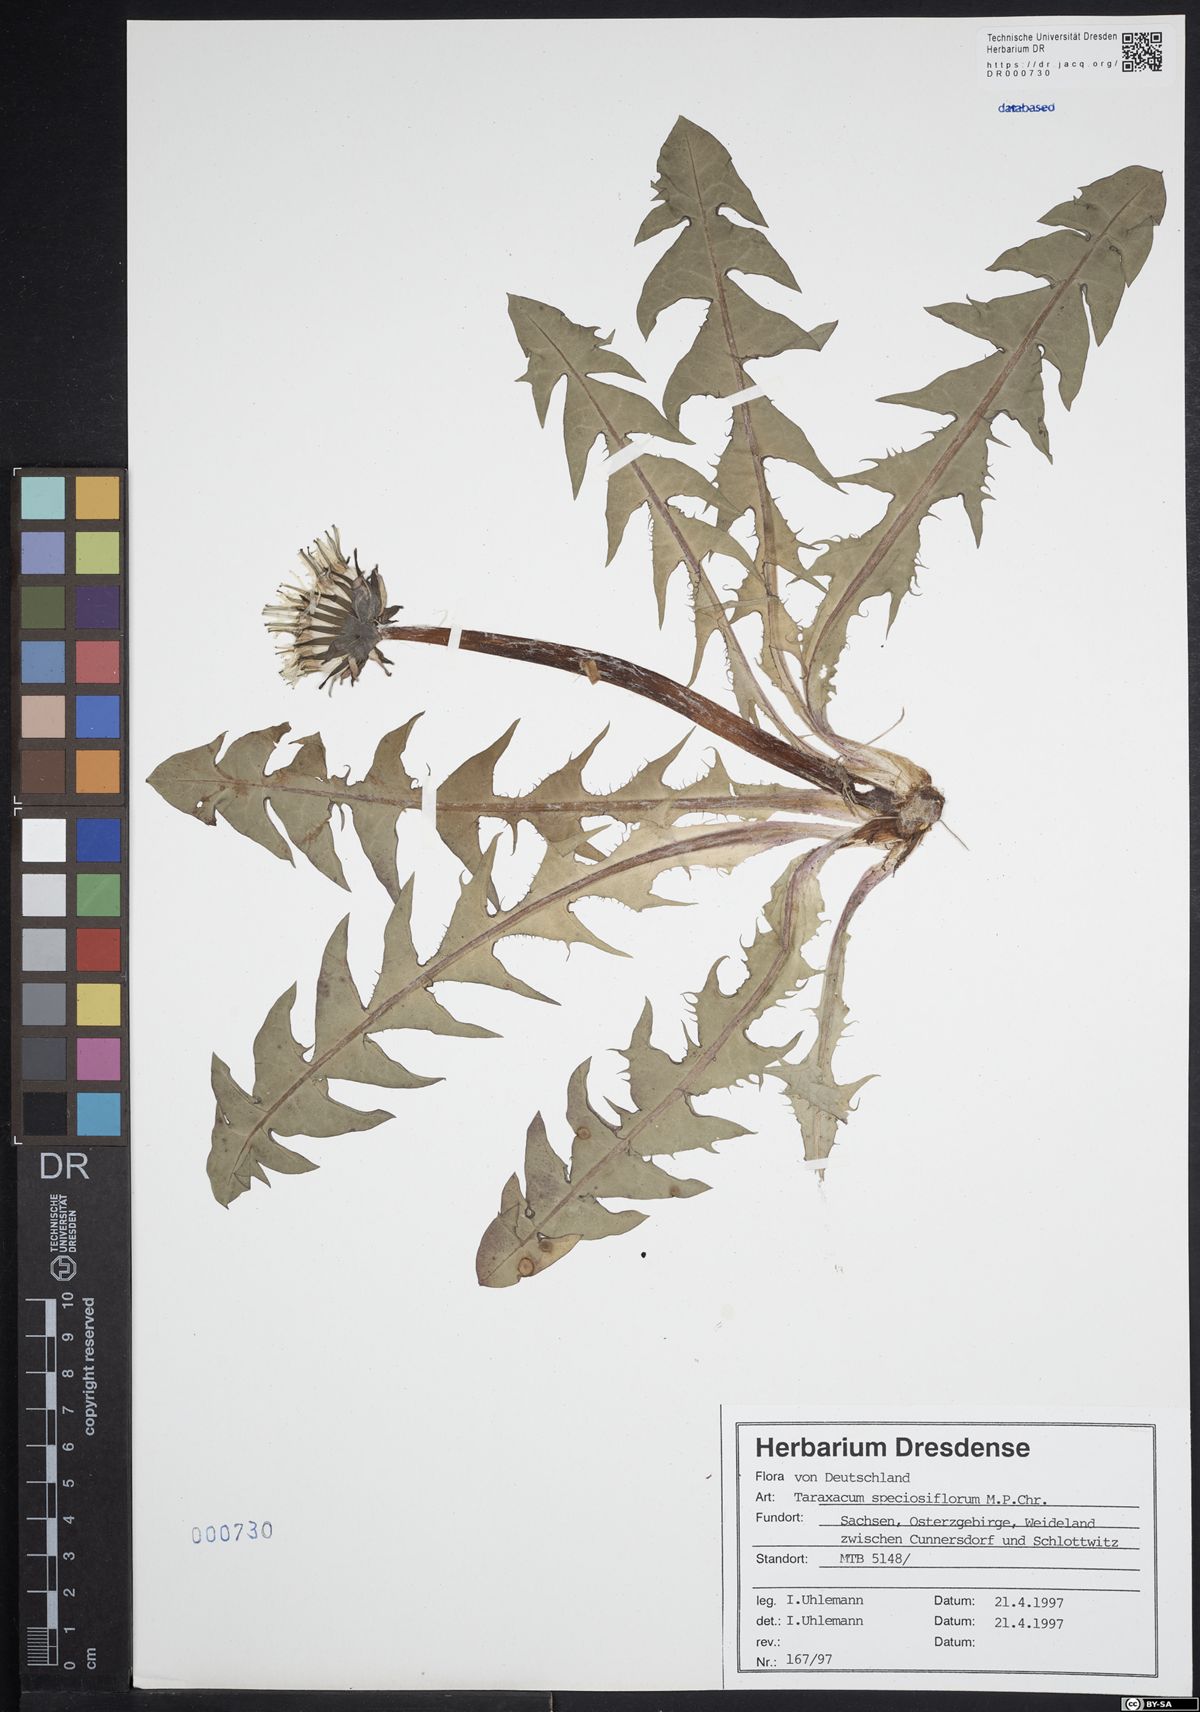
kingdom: Plantae
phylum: Tracheophyta
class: Magnoliopsida
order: Asterales
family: Asteraceae
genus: Taraxacum
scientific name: Taraxacum speciosiflorum
